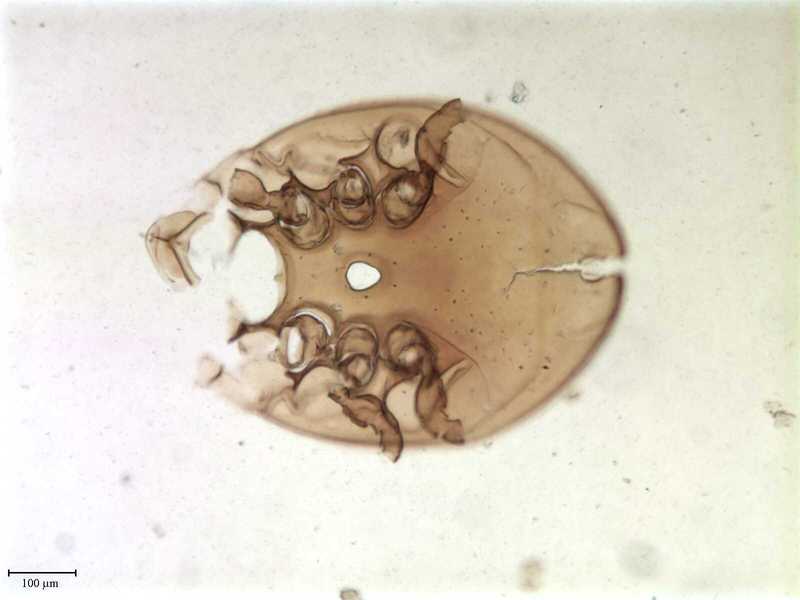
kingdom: Animalia
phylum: Arthropoda
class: Arachnida
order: Mesostigmata
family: Uropodidae
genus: Uroobovella
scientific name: Uroobovella marginata
